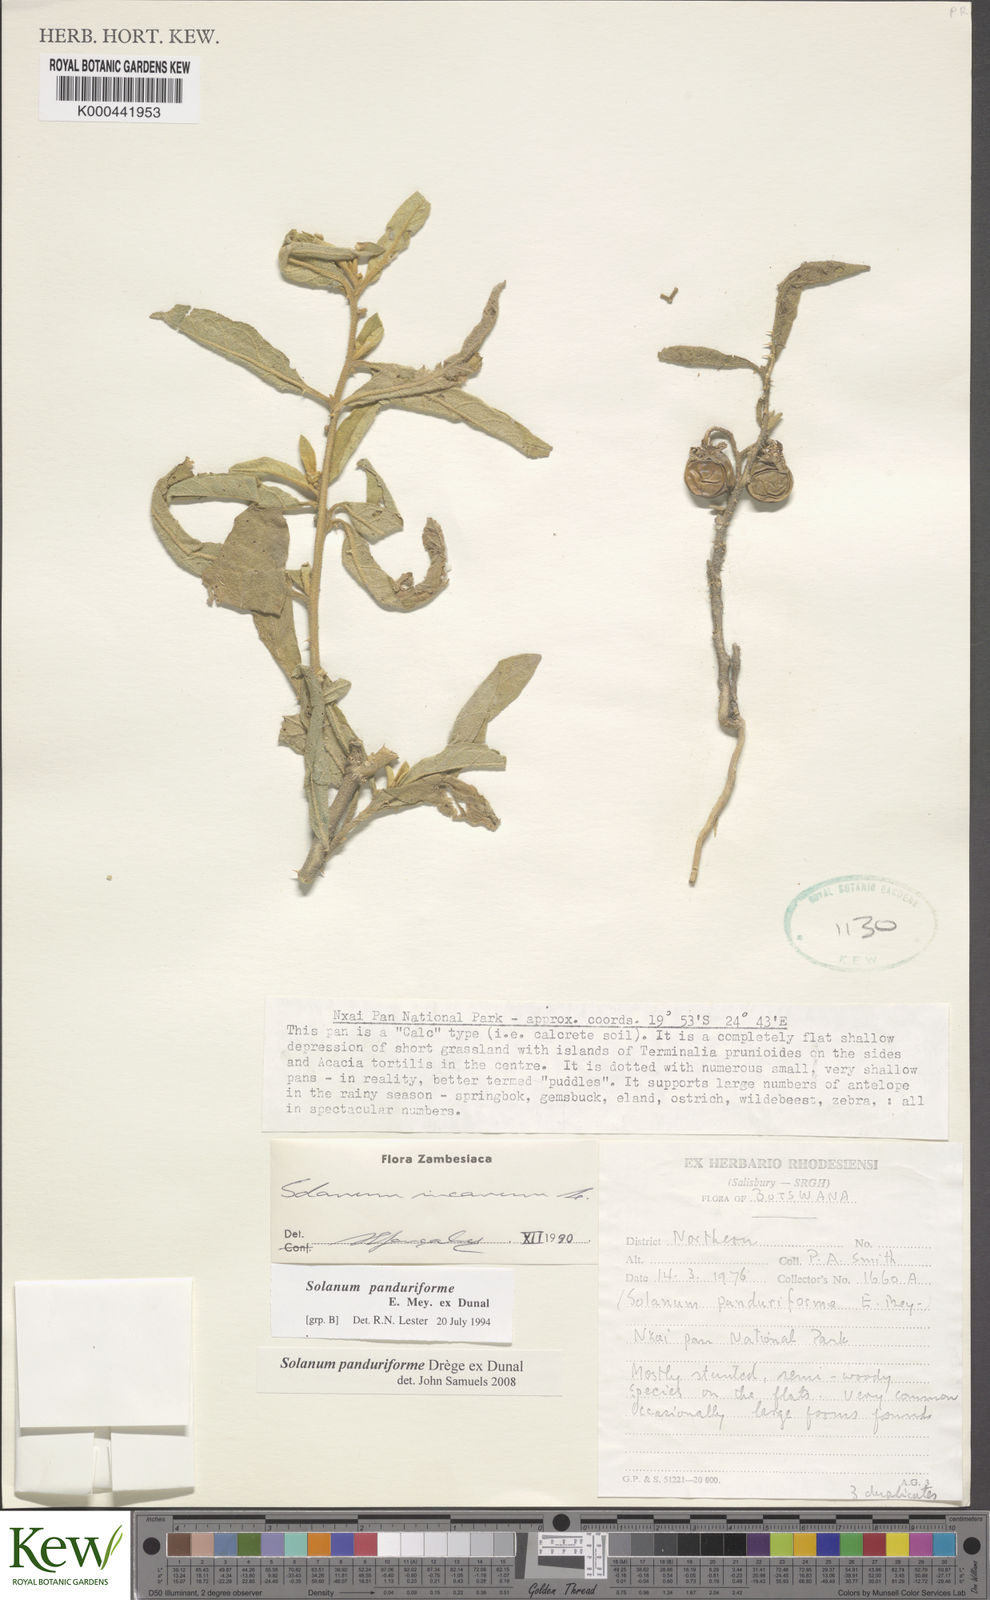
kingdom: Plantae
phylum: Tracheophyta
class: Magnoliopsida
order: Solanales
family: Solanaceae
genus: Solanum
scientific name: Solanum campylacanthum
